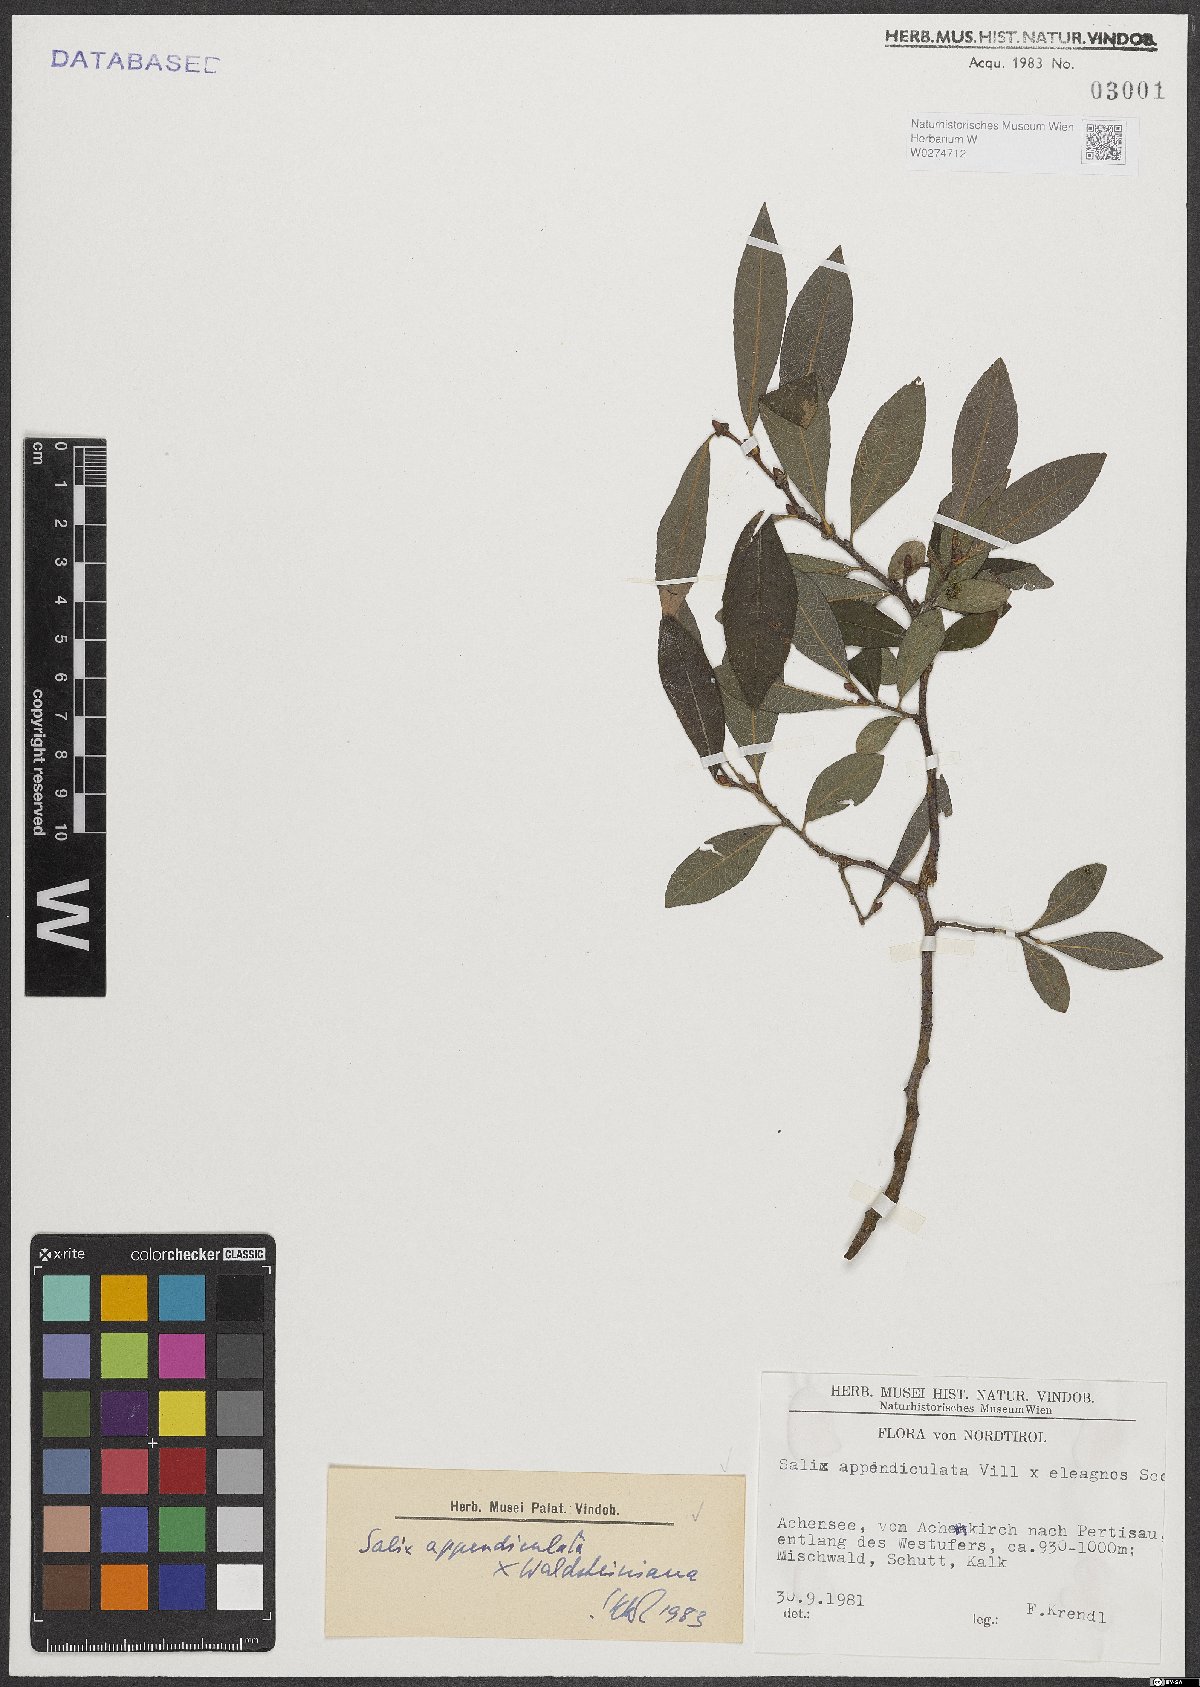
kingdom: Plantae
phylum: Tracheophyta
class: Magnoliopsida
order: Malpighiales
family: Salicaceae
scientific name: Salicaceae
